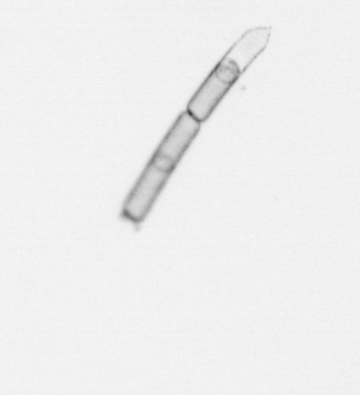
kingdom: Chromista
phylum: Ochrophyta
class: Bacillariophyceae
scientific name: Bacillariophyceae
